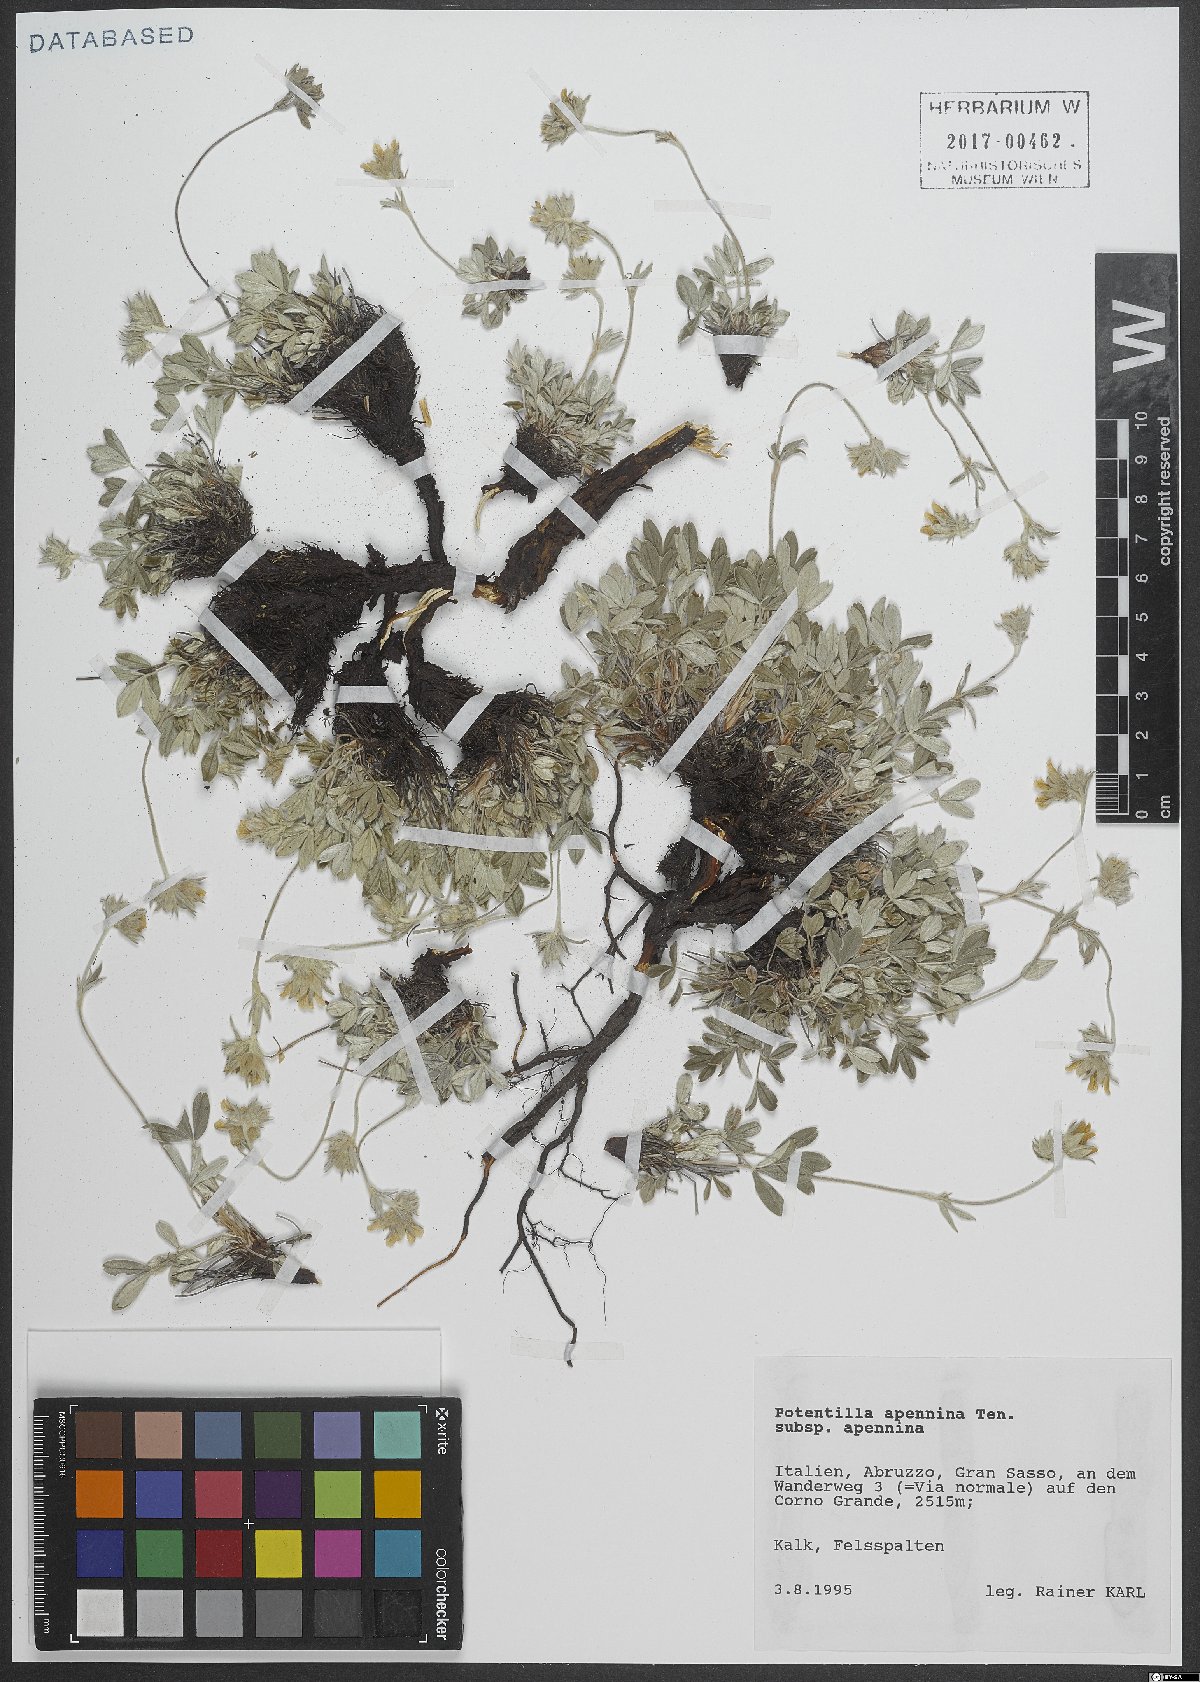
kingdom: Plantae
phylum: Tracheophyta
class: Magnoliopsida
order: Rosales
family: Rosaceae
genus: Potentilla
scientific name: Potentilla apennina
